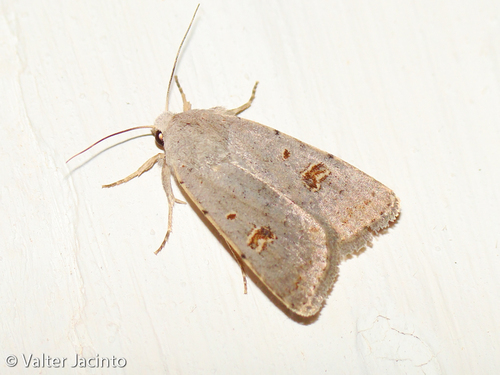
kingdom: Animalia
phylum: Arthropoda
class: Insecta
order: Lepidoptera
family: Noctuidae
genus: Caradrina
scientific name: Caradrina proxima
